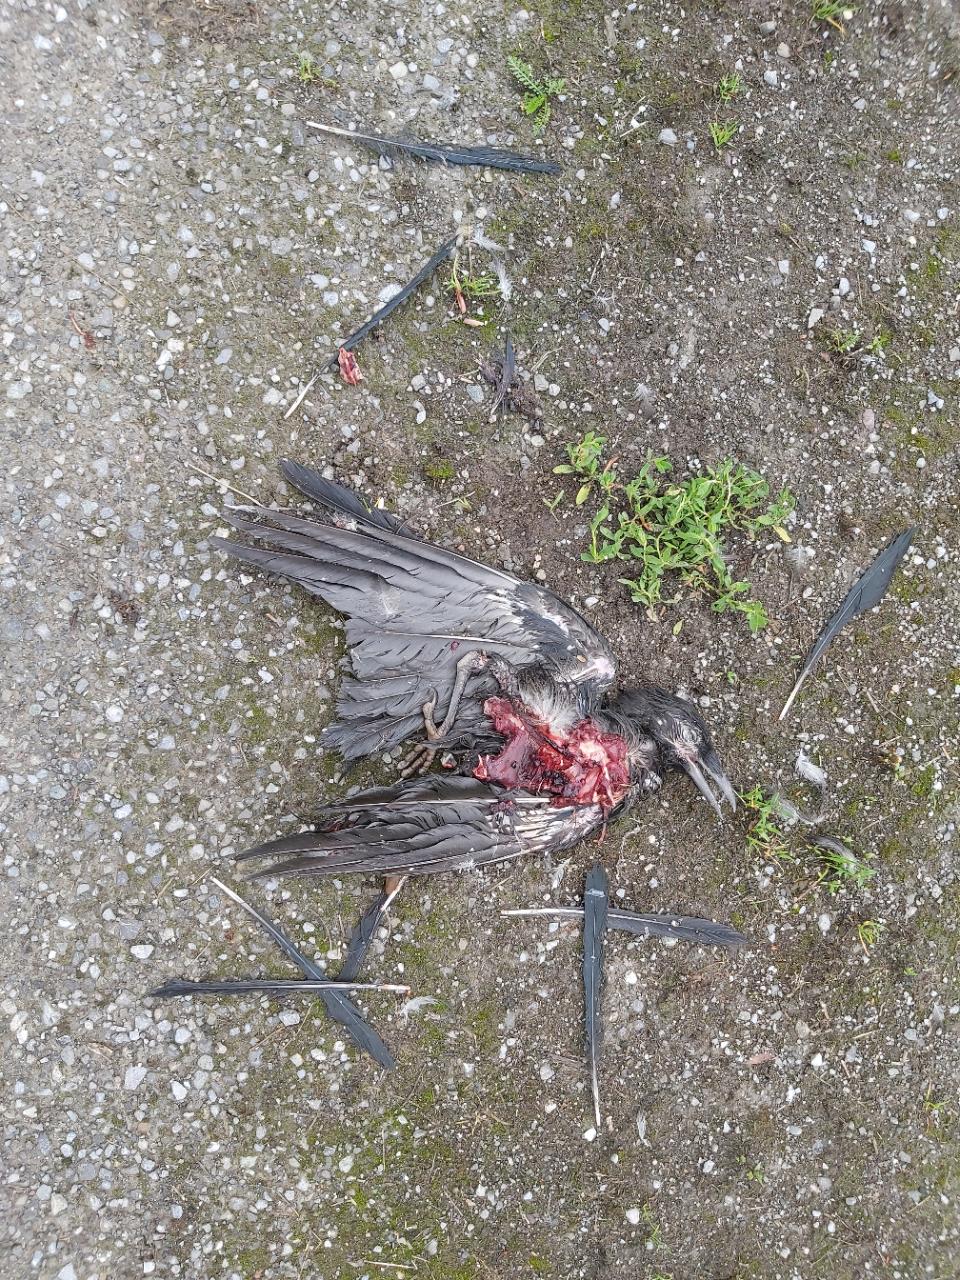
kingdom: Animalia
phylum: Chordata
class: Aves
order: Passeriformes
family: Corvidae
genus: Corvus
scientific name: Corvus
